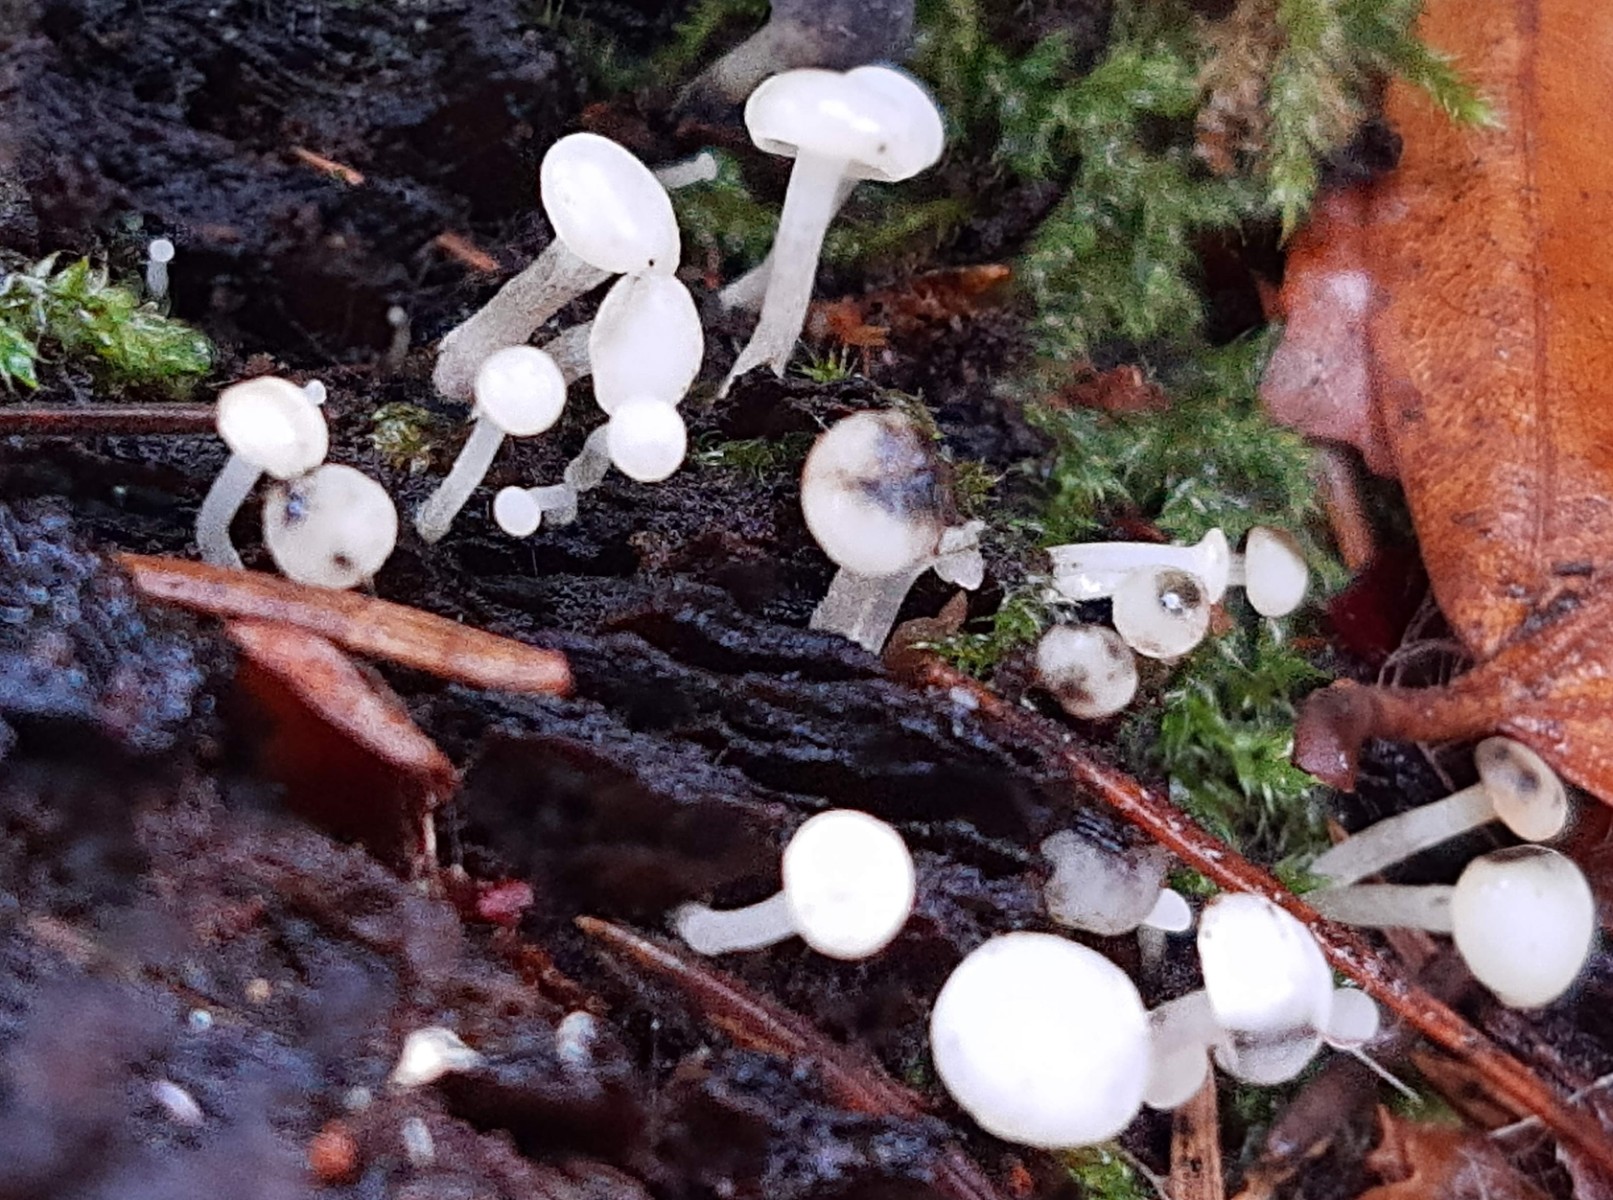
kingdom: Fungi
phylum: Ascomycota
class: Leotiomycetes
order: Helotiales
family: Tricladiaceae
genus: Cudoniella
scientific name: Cudoniella acicularis
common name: ege-dyndskive
